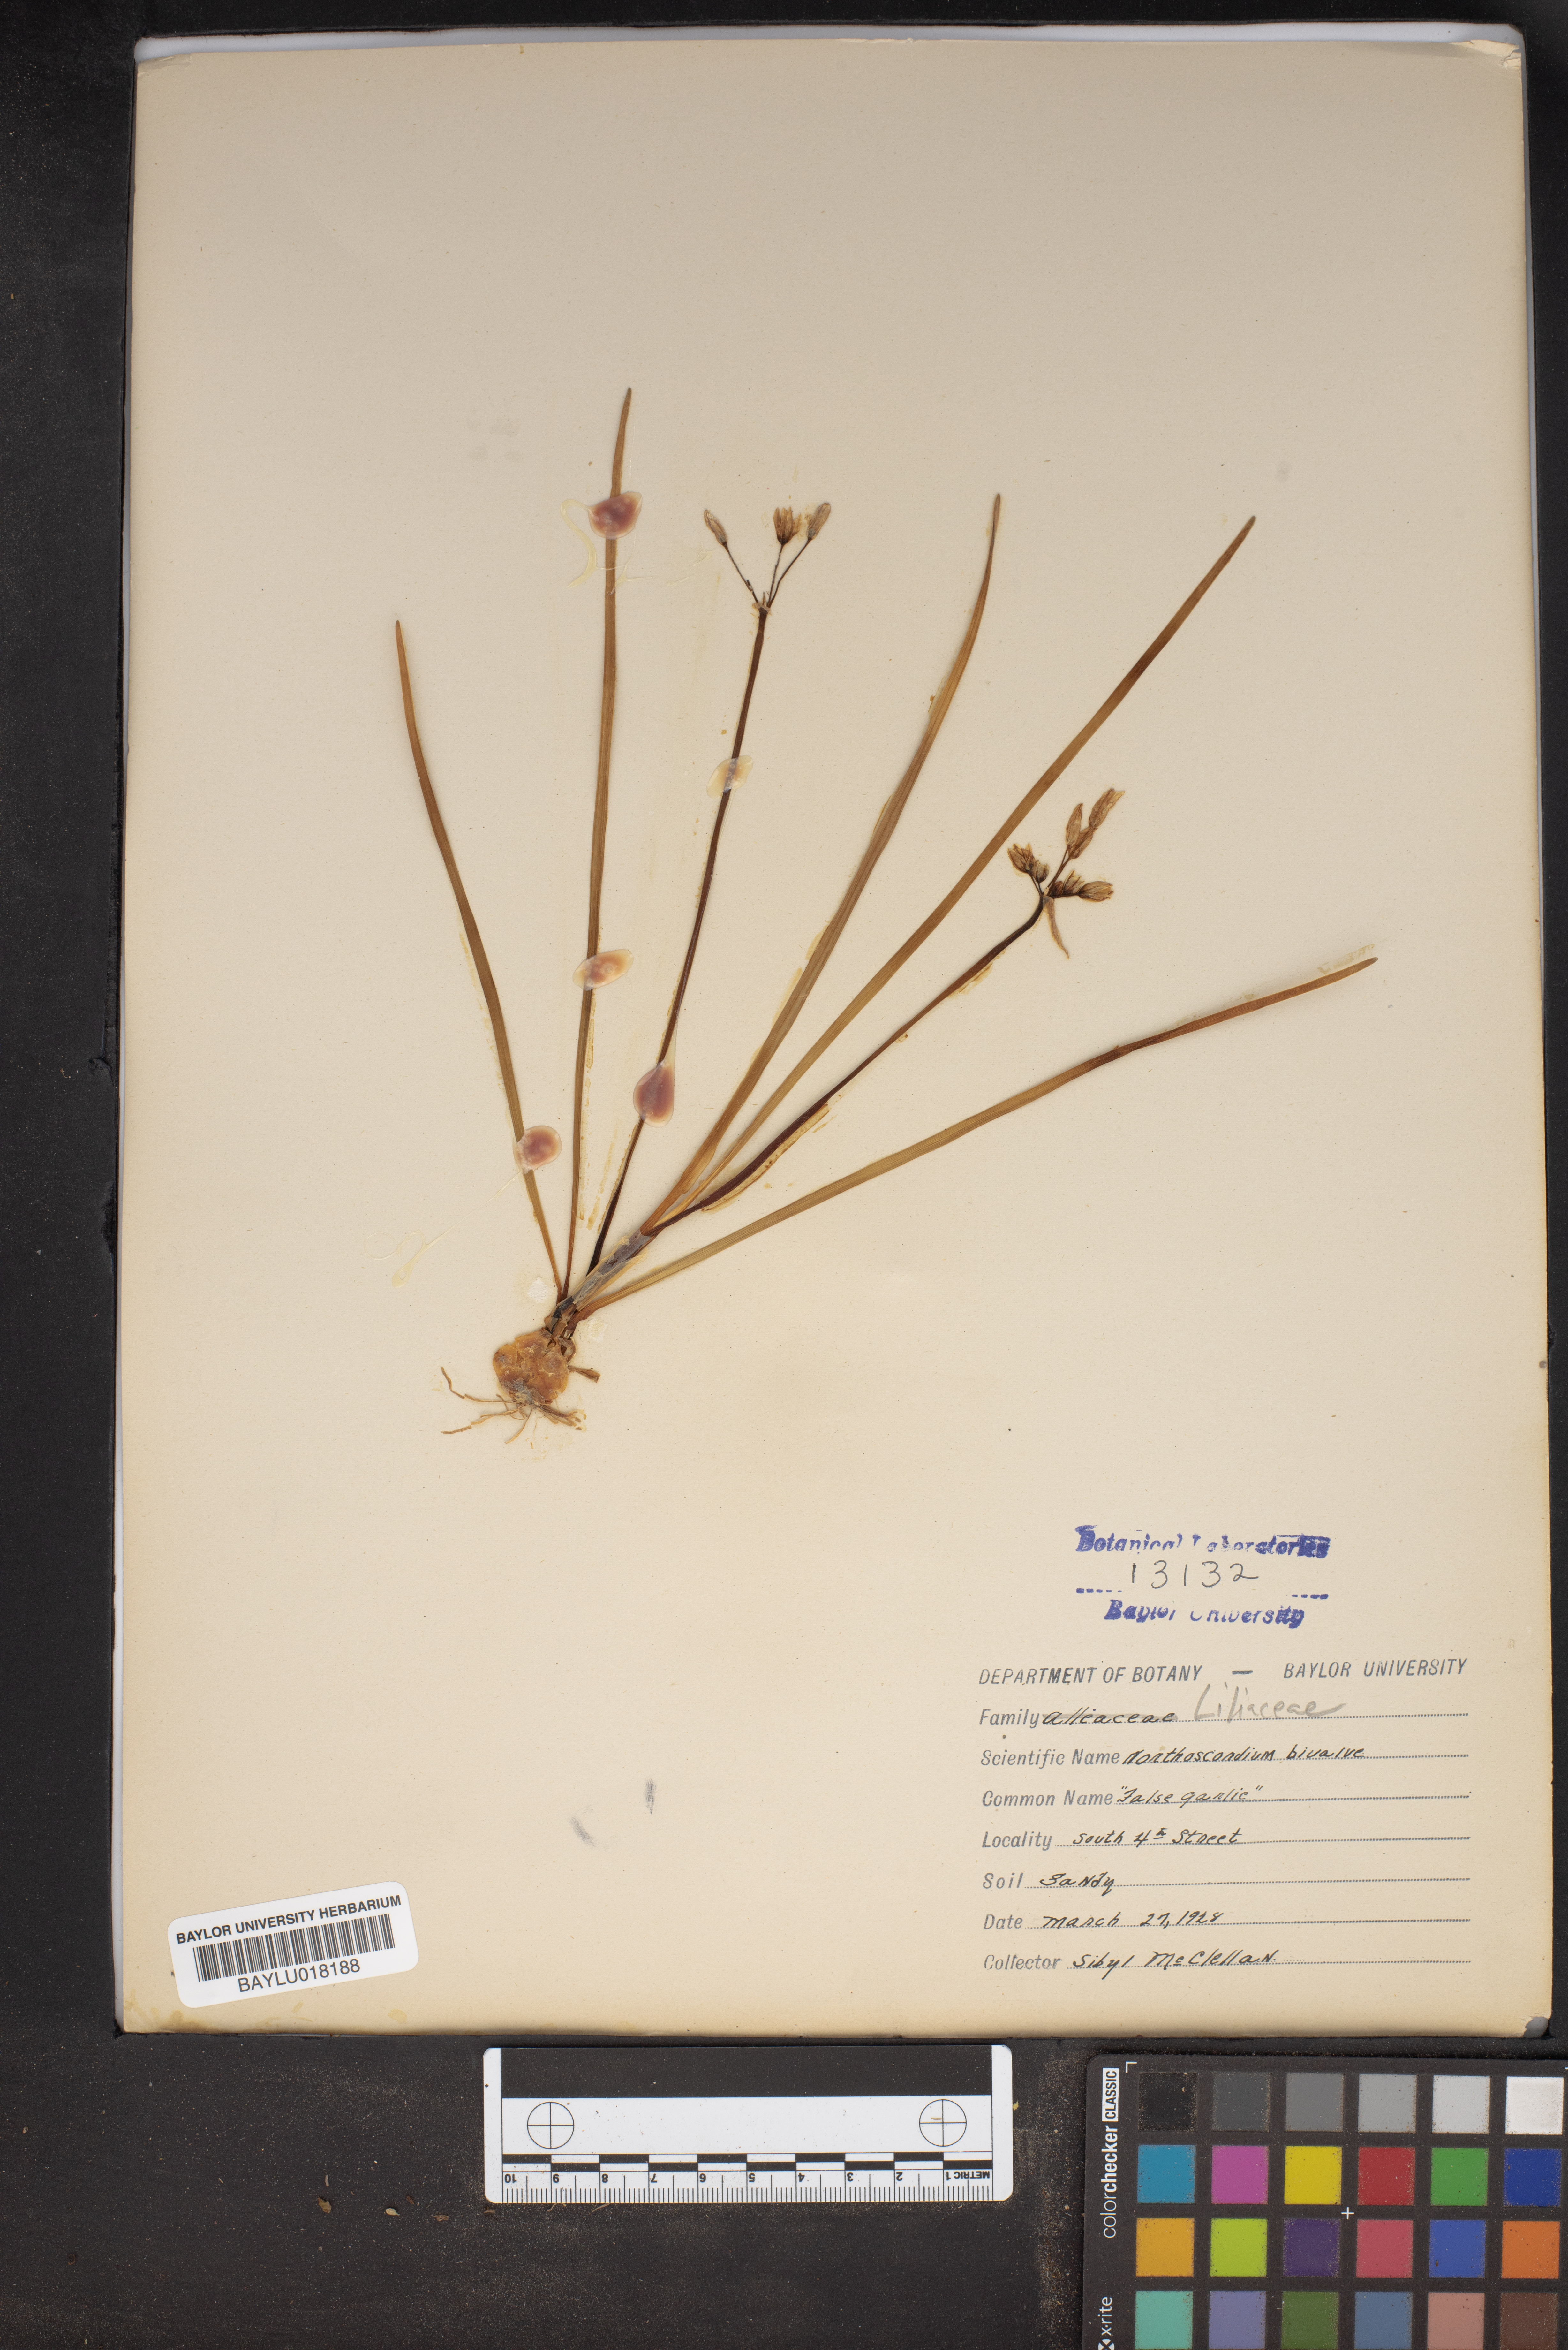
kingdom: Plantae
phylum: Tracheophyta
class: Liliopsida
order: Asparagales
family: Amaryllidaceae
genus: Nothoscordum
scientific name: Nothoscordum bivalve
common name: Crow-poison
